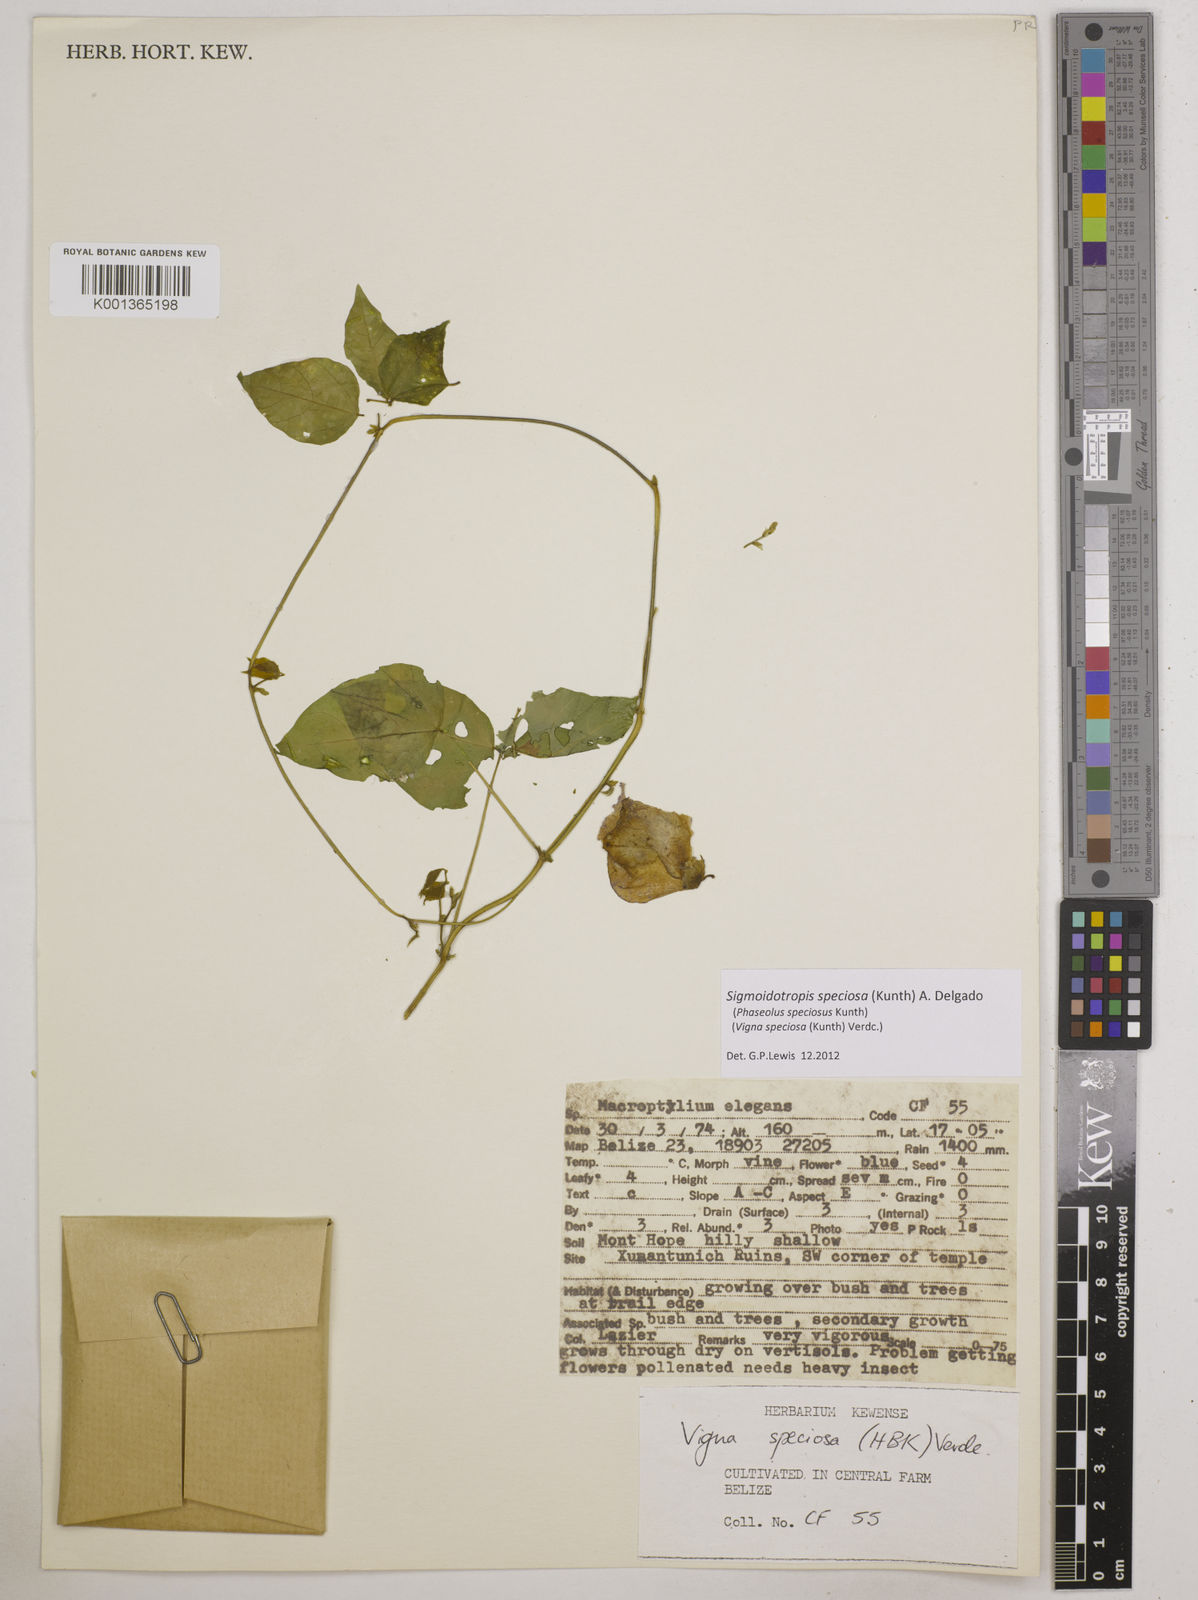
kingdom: Plantae
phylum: Tracheophyta
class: Magnoliopsida
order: Fabales
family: Fabaceae
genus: Sigmoidotropis
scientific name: Sigmoidotropis speciosa
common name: Snail flower
